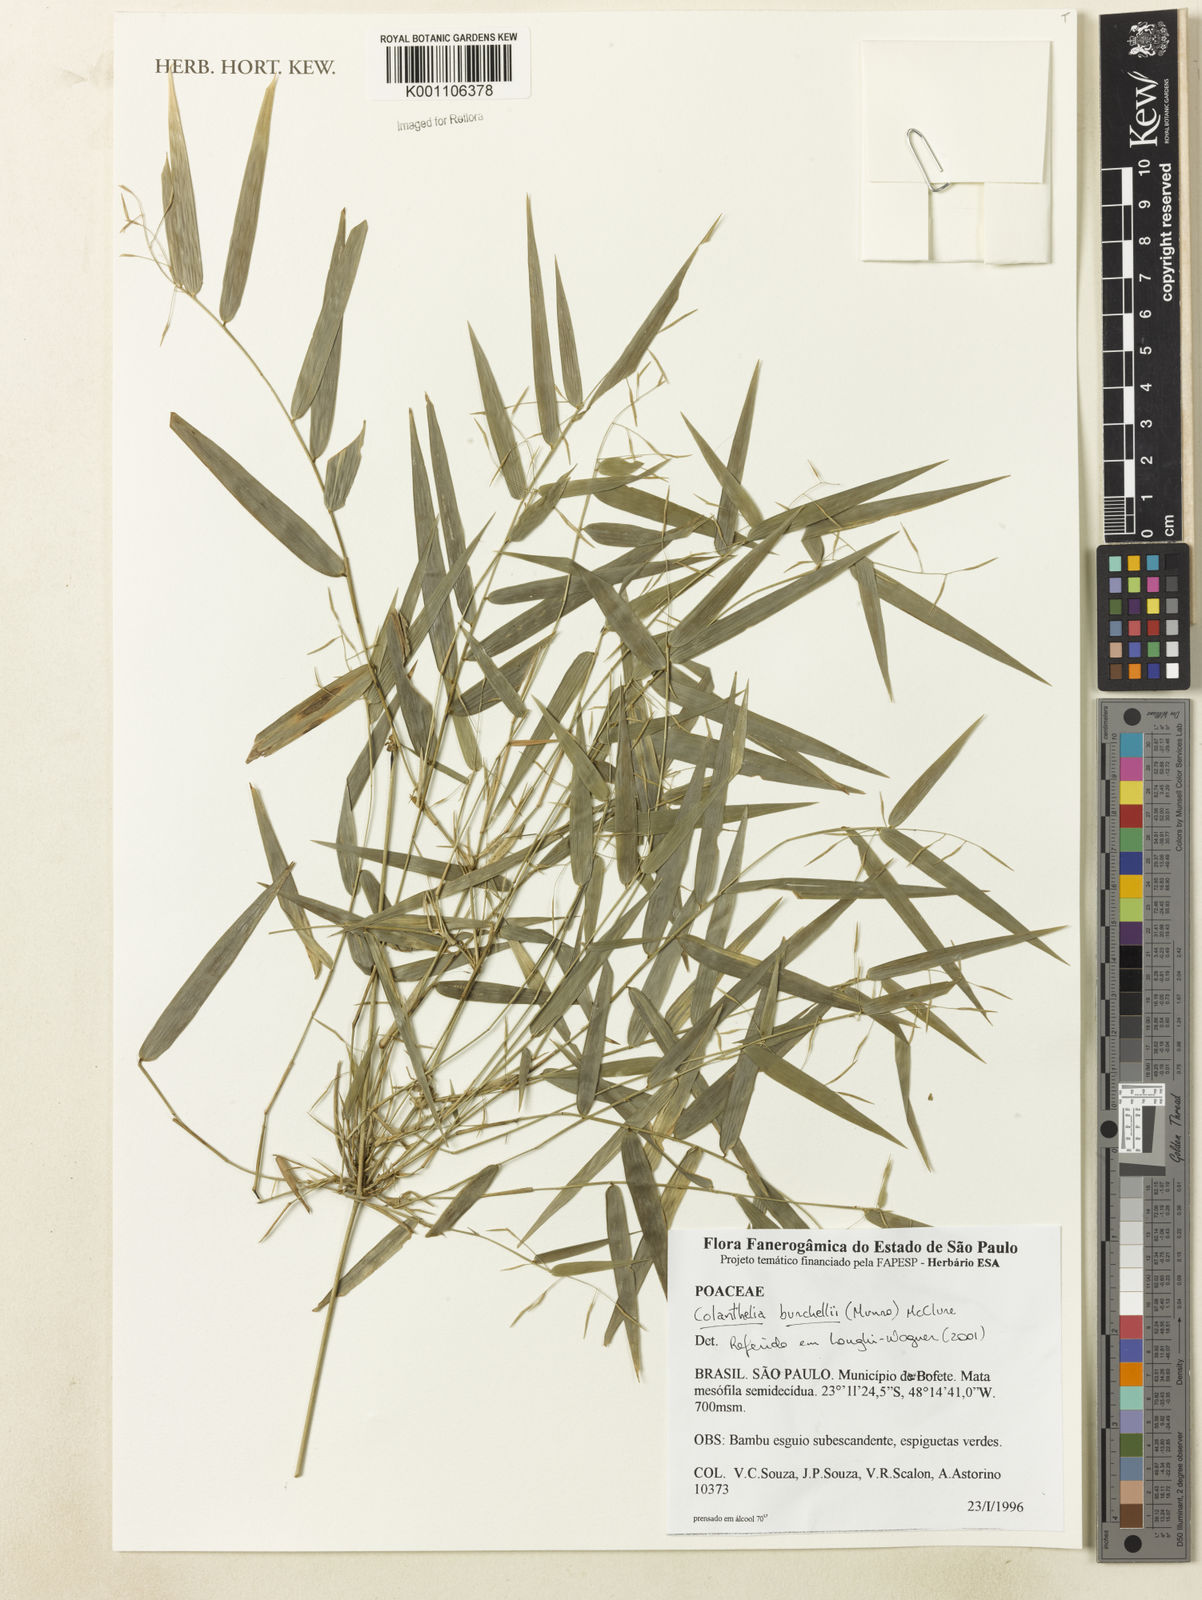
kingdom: Plantae
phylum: Tracheophyta
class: Liliopsida
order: Poales
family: Poaceae
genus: Colanthelia
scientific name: Colanthelia burchellii
